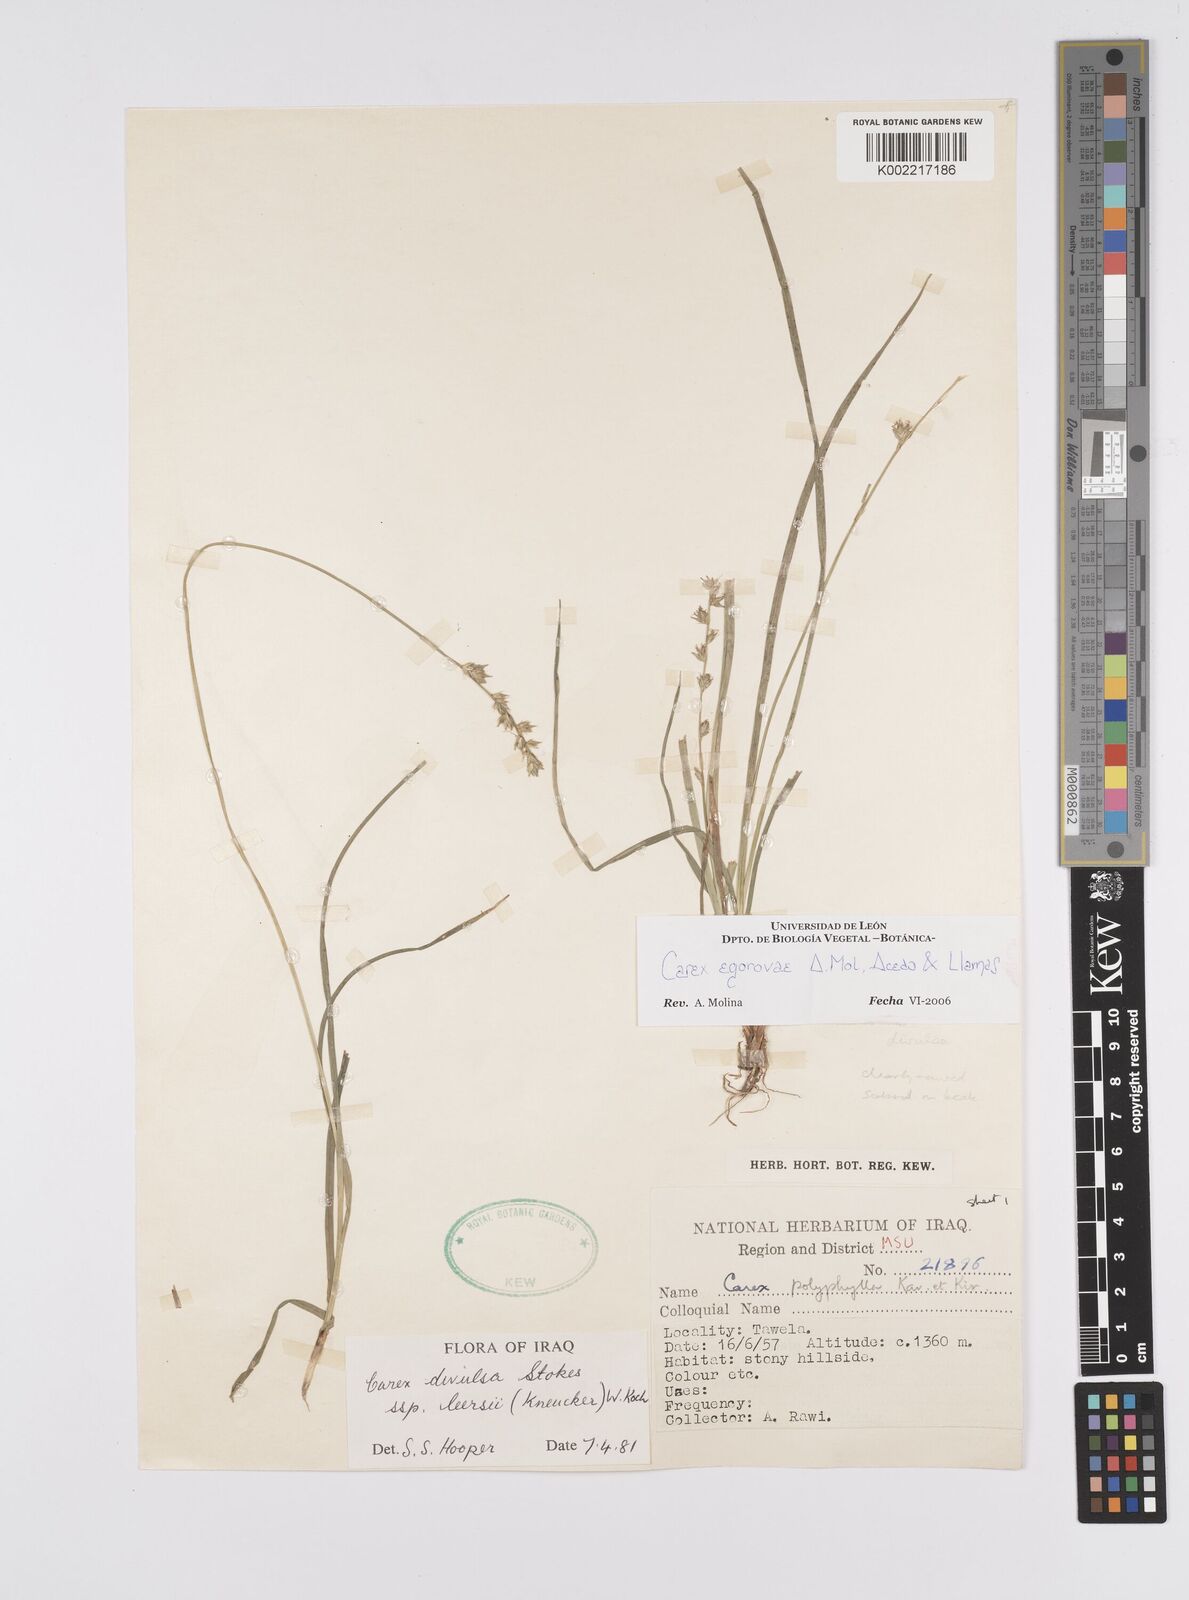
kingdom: Plantae
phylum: Tracheophyta
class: Liliopsida
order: Poales
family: Cyperaceae
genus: Carex
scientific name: Carex egorovae
